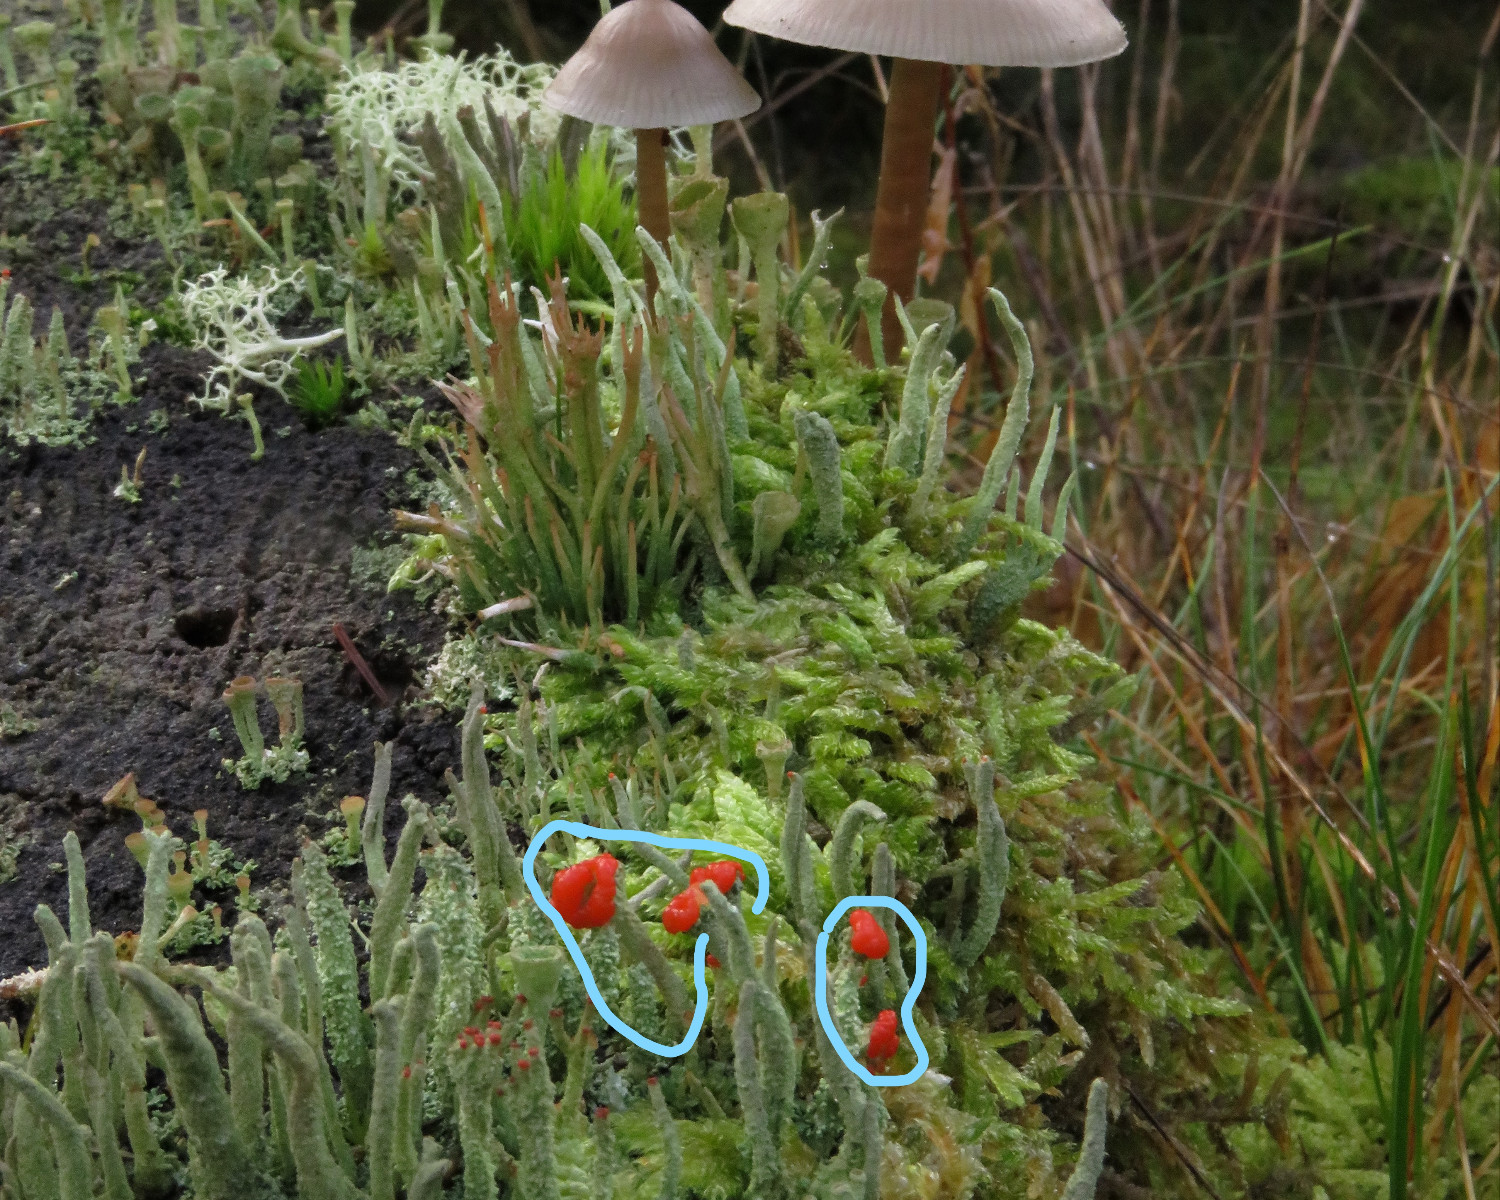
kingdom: Fungi
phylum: Ascomycota
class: Lecanoromycetes
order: Lecanorales
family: Cladoniaceae
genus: Cladonia
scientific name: Cladonia floerkeana
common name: lakrød bægerlav
